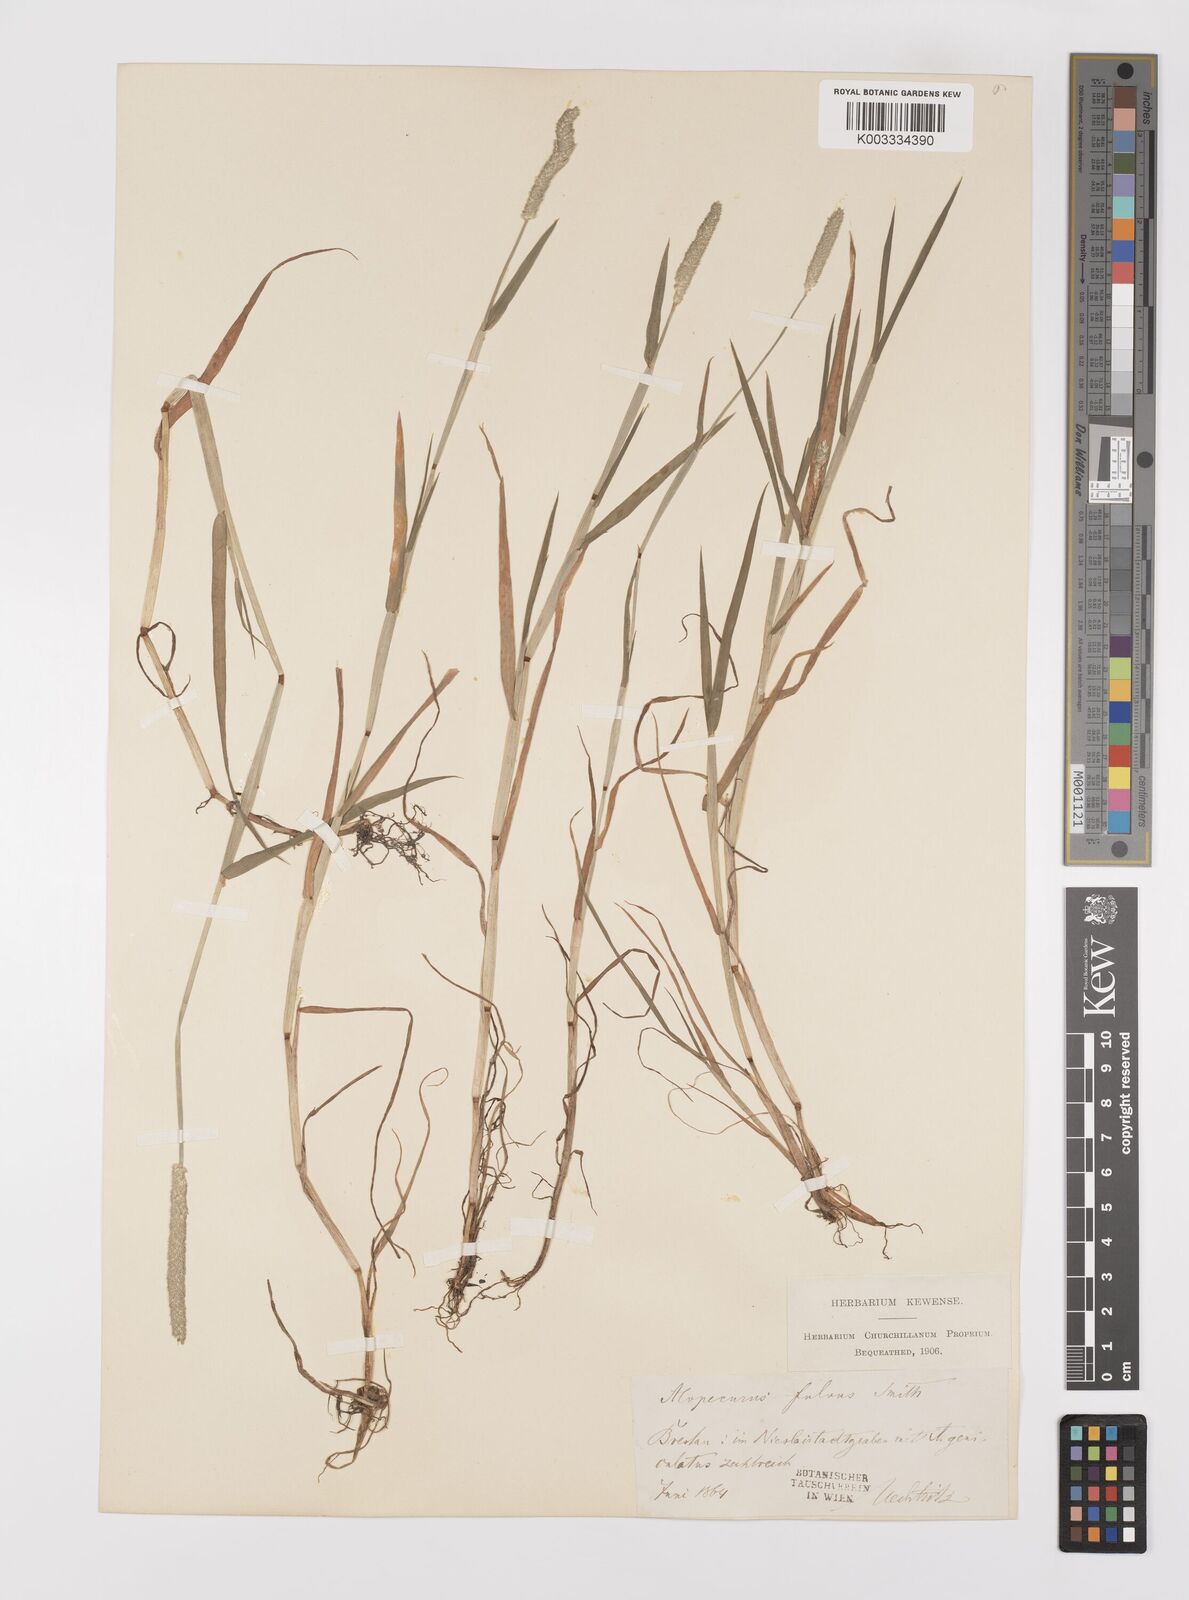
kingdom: Plantae
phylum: Tracheophyta
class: Liliopsida
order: Poales
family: Poaceae
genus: Alopecurus
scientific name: Alopecurus aequalis
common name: Orange foxtail
